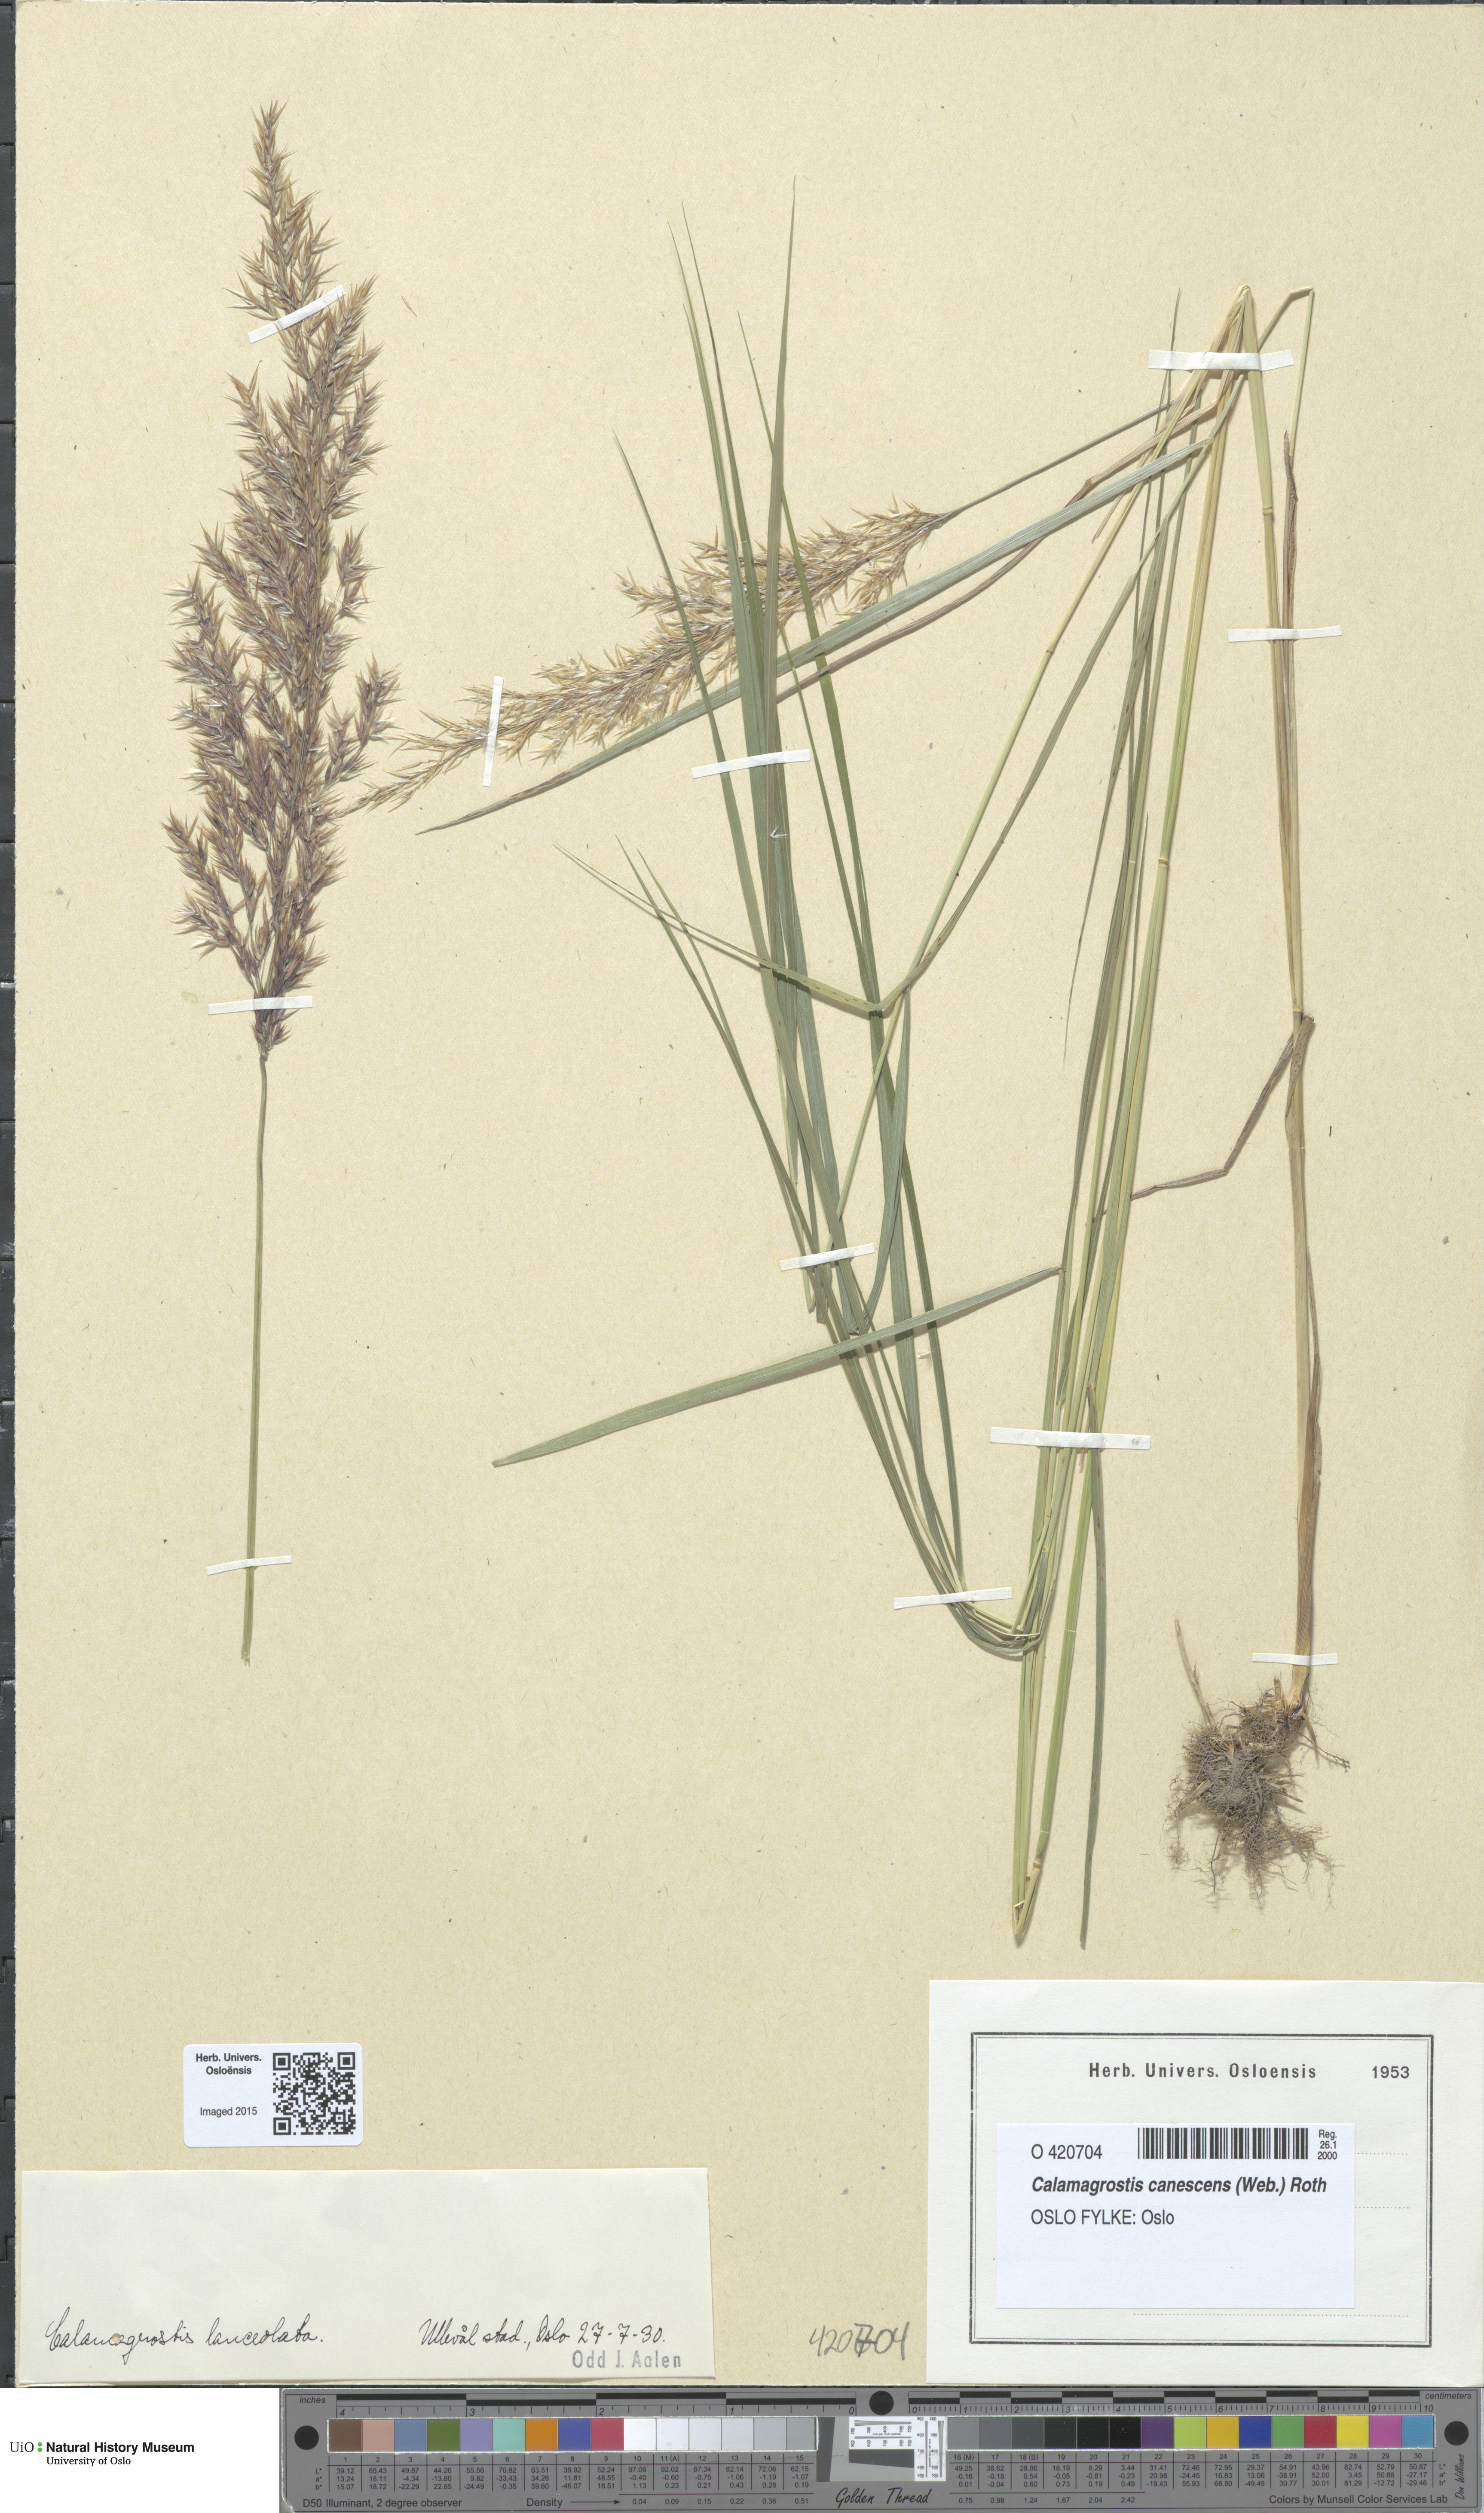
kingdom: Plantae
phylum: Tracheophyta
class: Liliopsida
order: Poales
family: Poaceae
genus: Calamagrostis
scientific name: Calamagrostis canescens
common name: Purple small-reed
